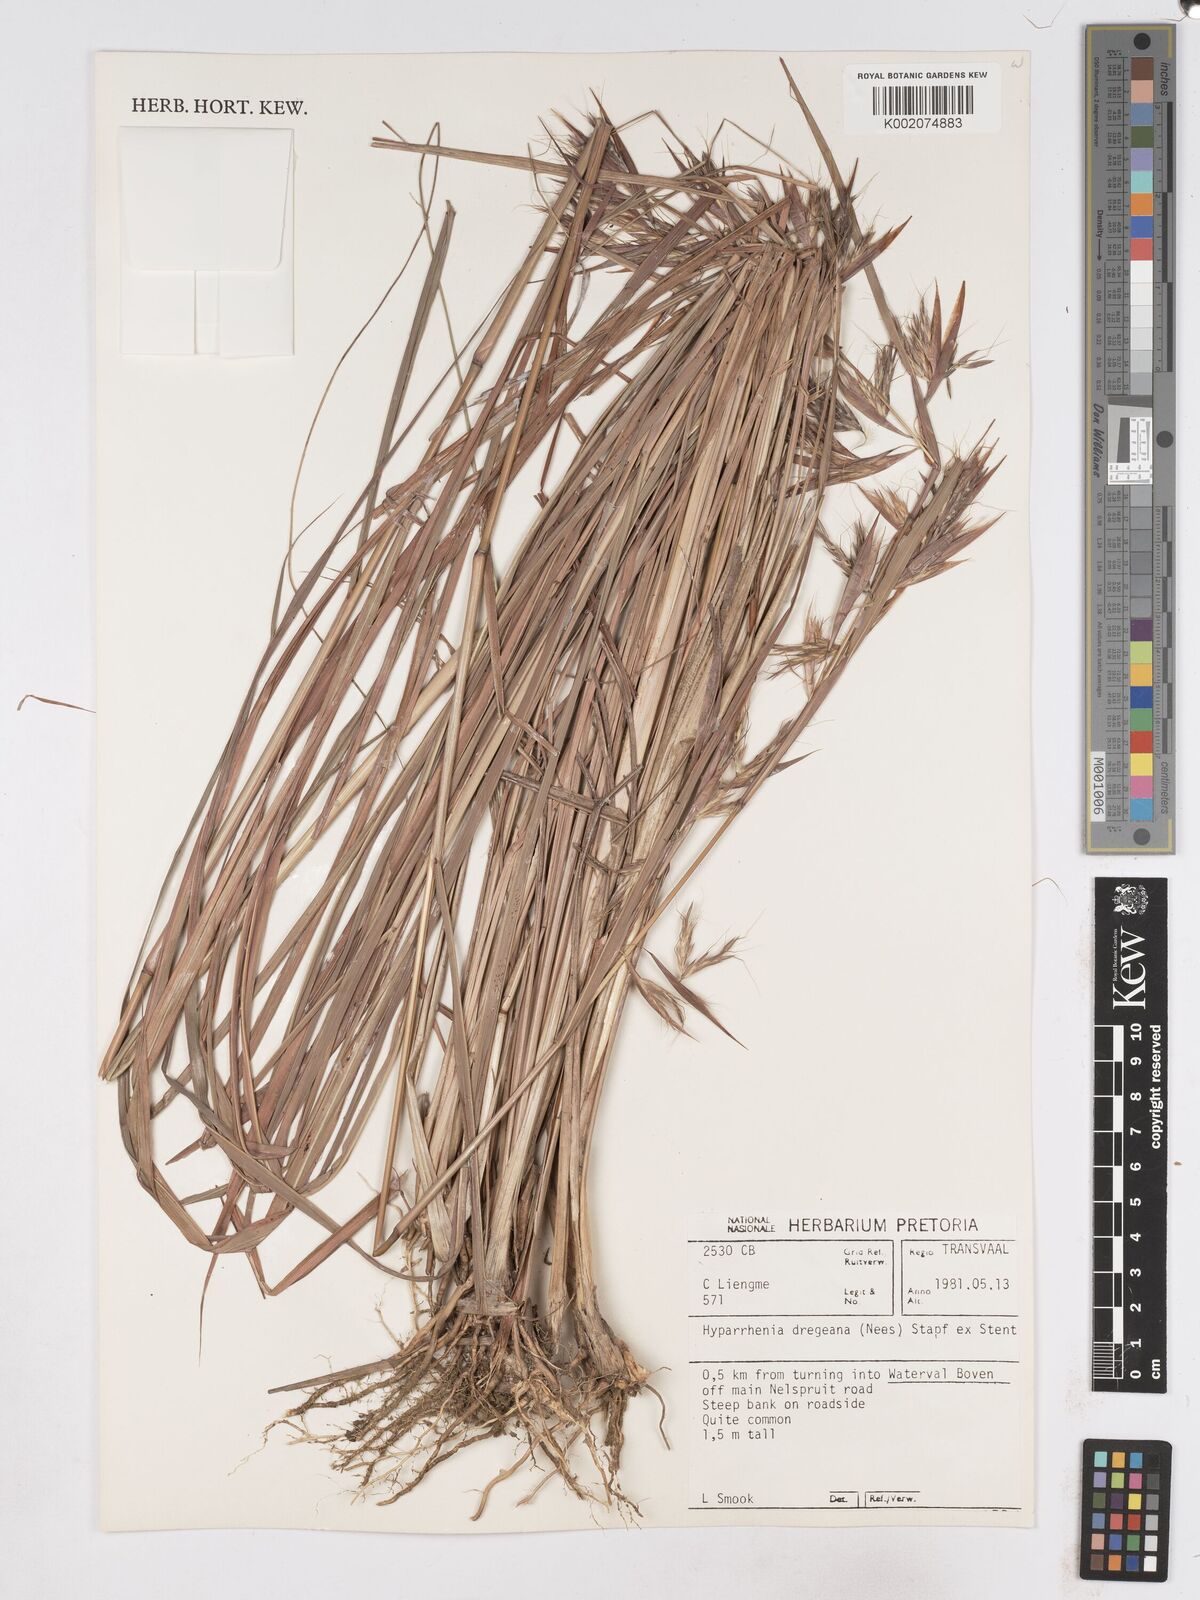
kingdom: Plantae
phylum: Tracheophyta
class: Liliopsida
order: Poales
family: Poaceae
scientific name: Poaceae
